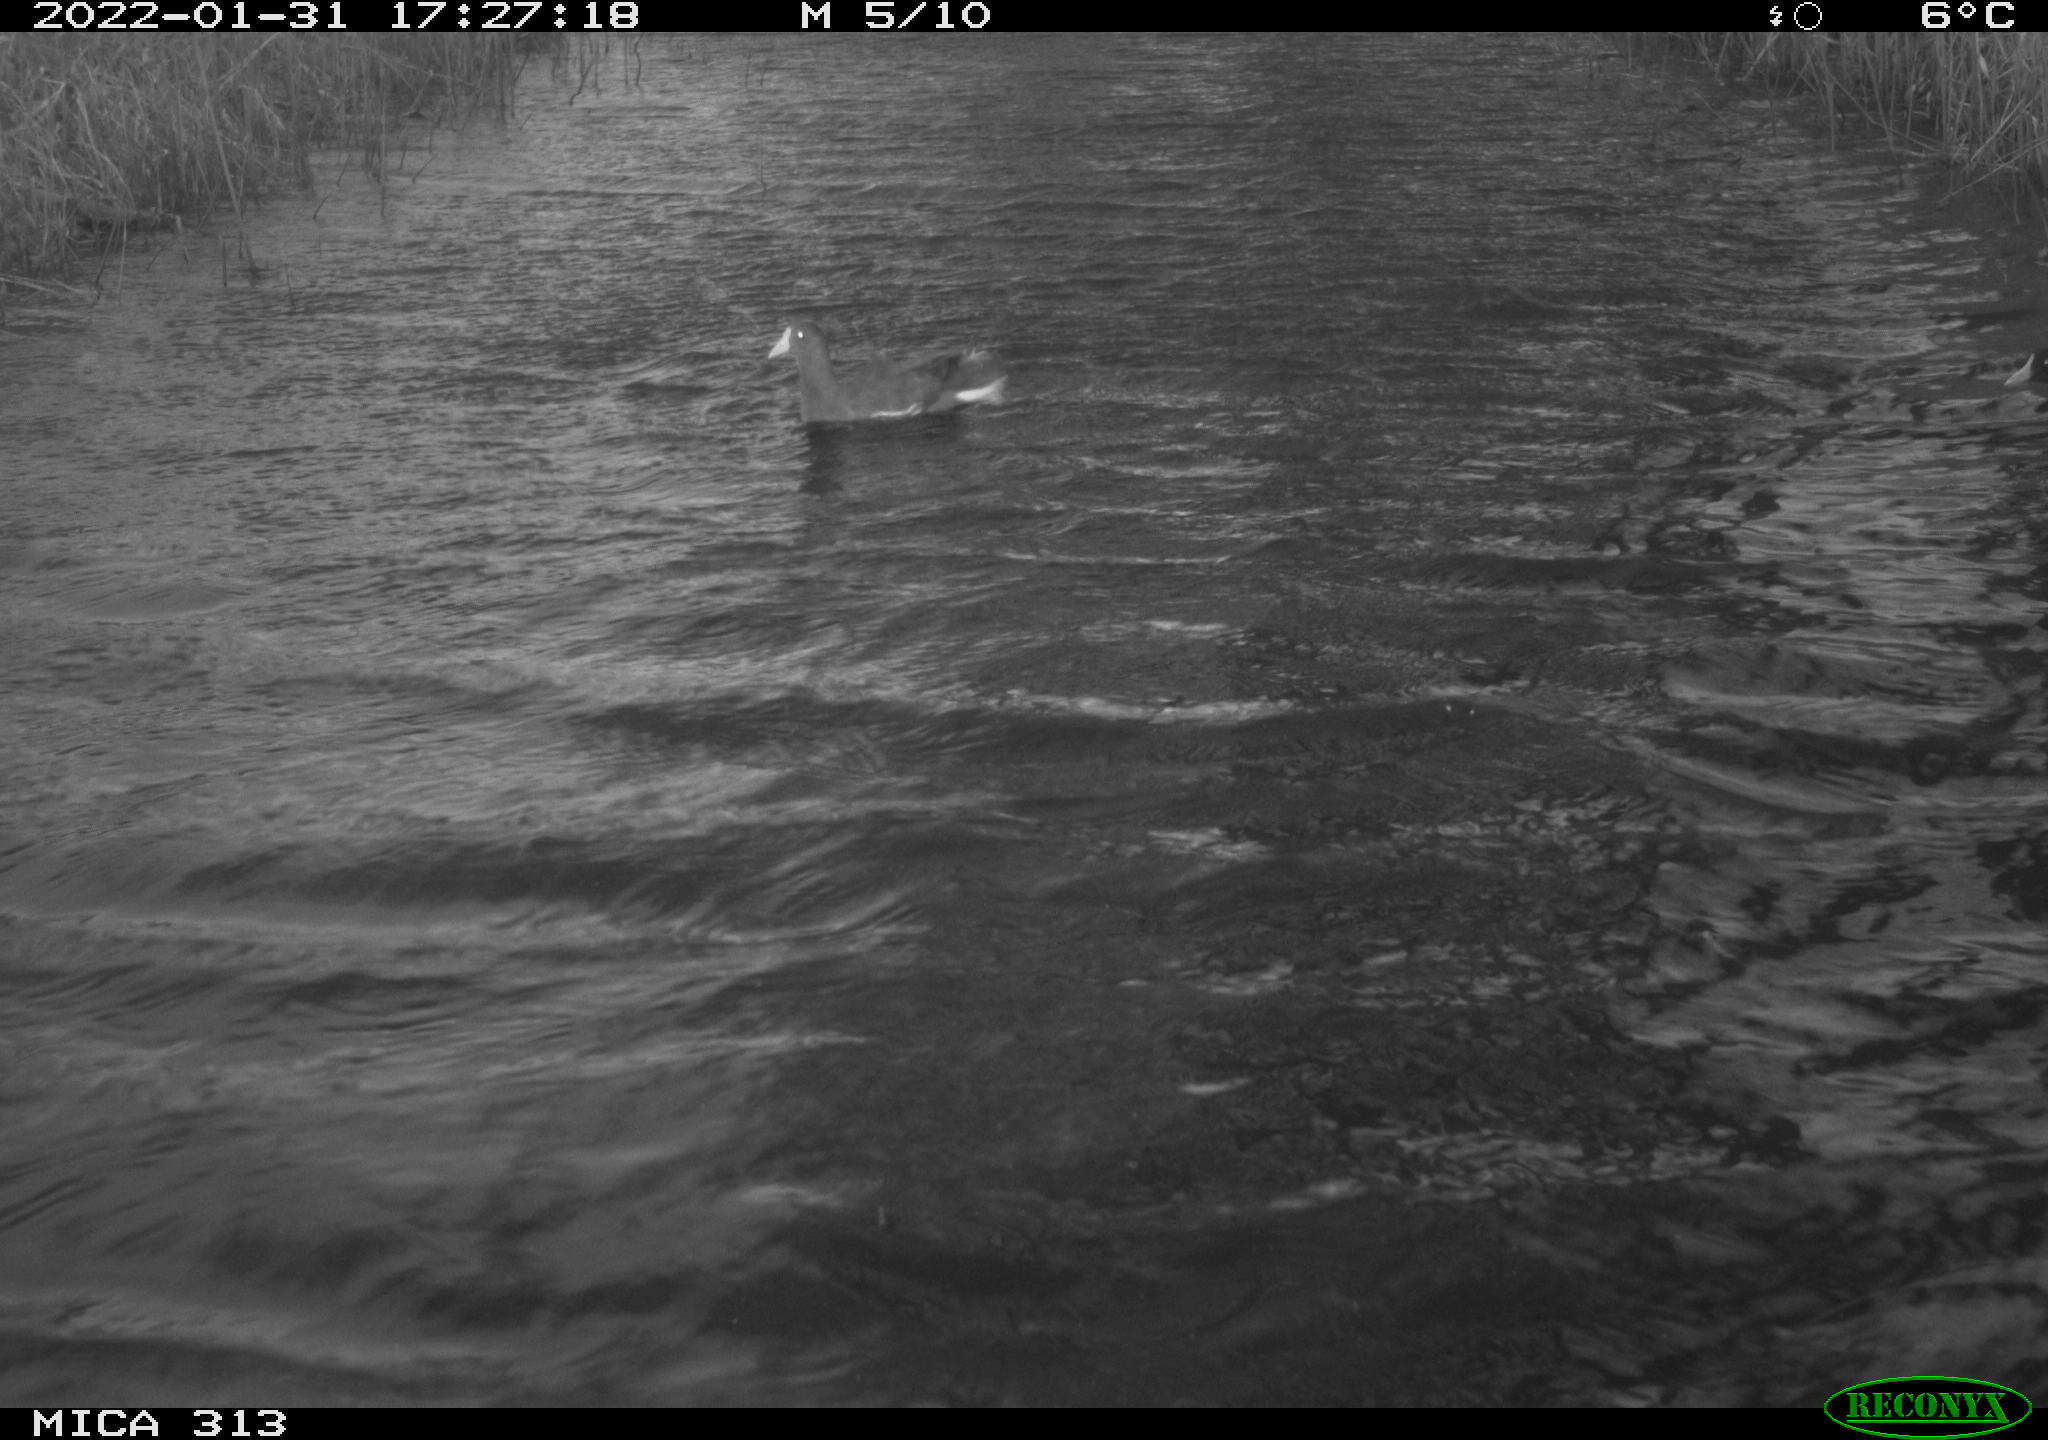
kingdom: Animalia
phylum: Chordata
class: Aves
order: Gruiformes
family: Rallidae
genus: Gallinula
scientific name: Gallinula chloropus
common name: Common moorhen
